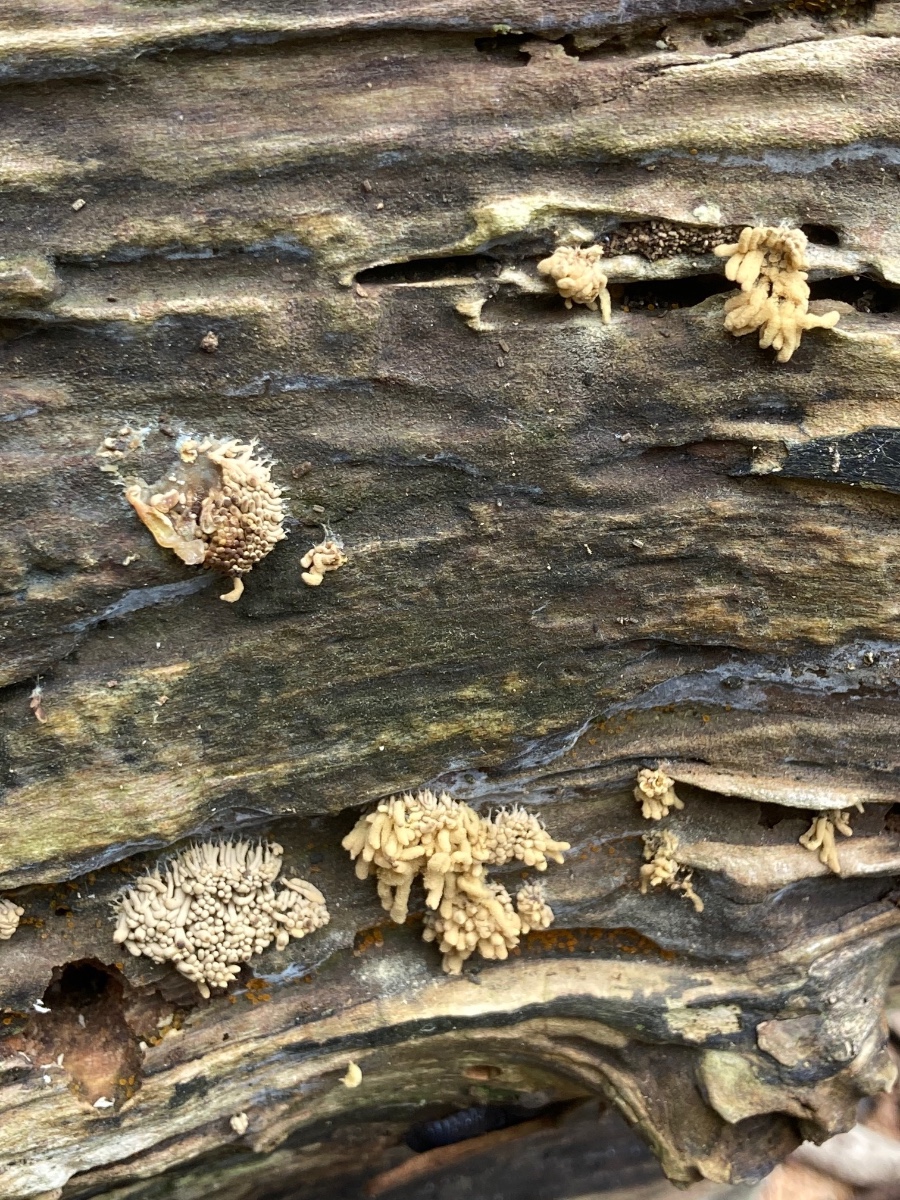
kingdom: Protozoa
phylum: Mycetozoa
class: Myxomycetes
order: Trichiales
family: Arcyriaceae
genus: Arcyria
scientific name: Arcyria obvelata
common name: okkergul skålsvøb
